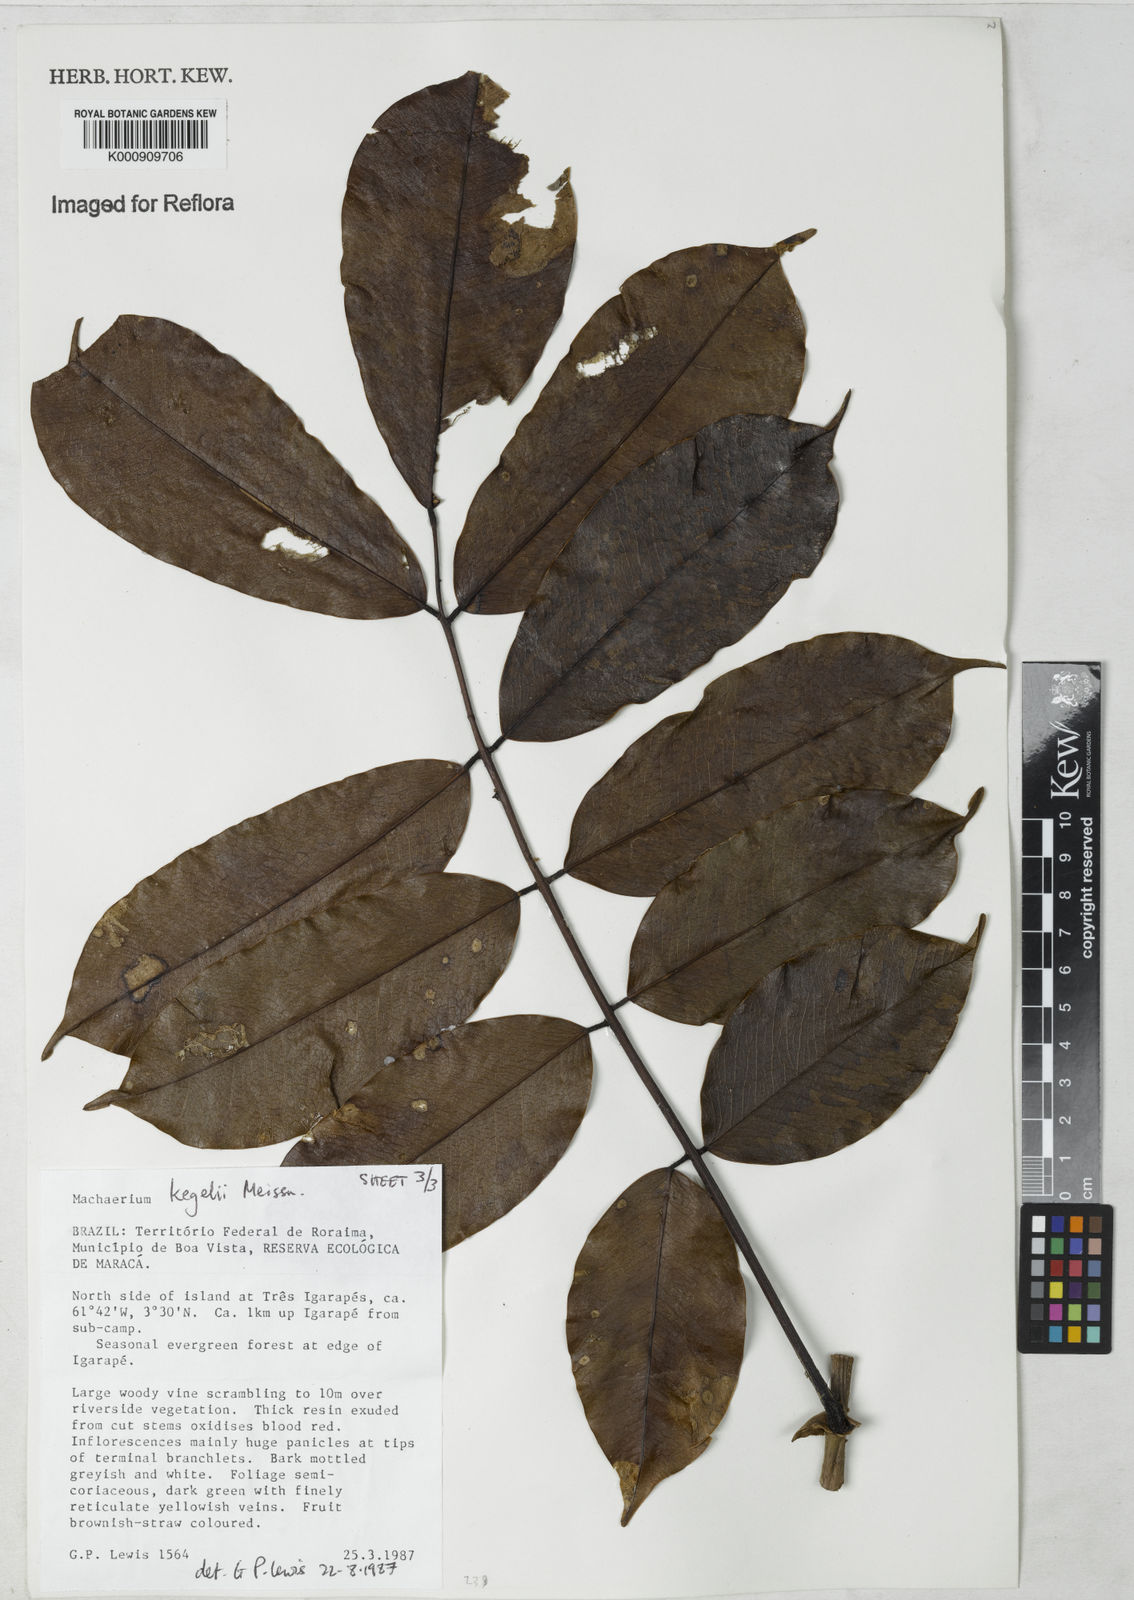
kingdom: Plantae
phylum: Tracheophyta
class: Magnoliopsida
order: Fabales
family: Fabaceae
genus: Machaerium
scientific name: Machaerium kegelii
